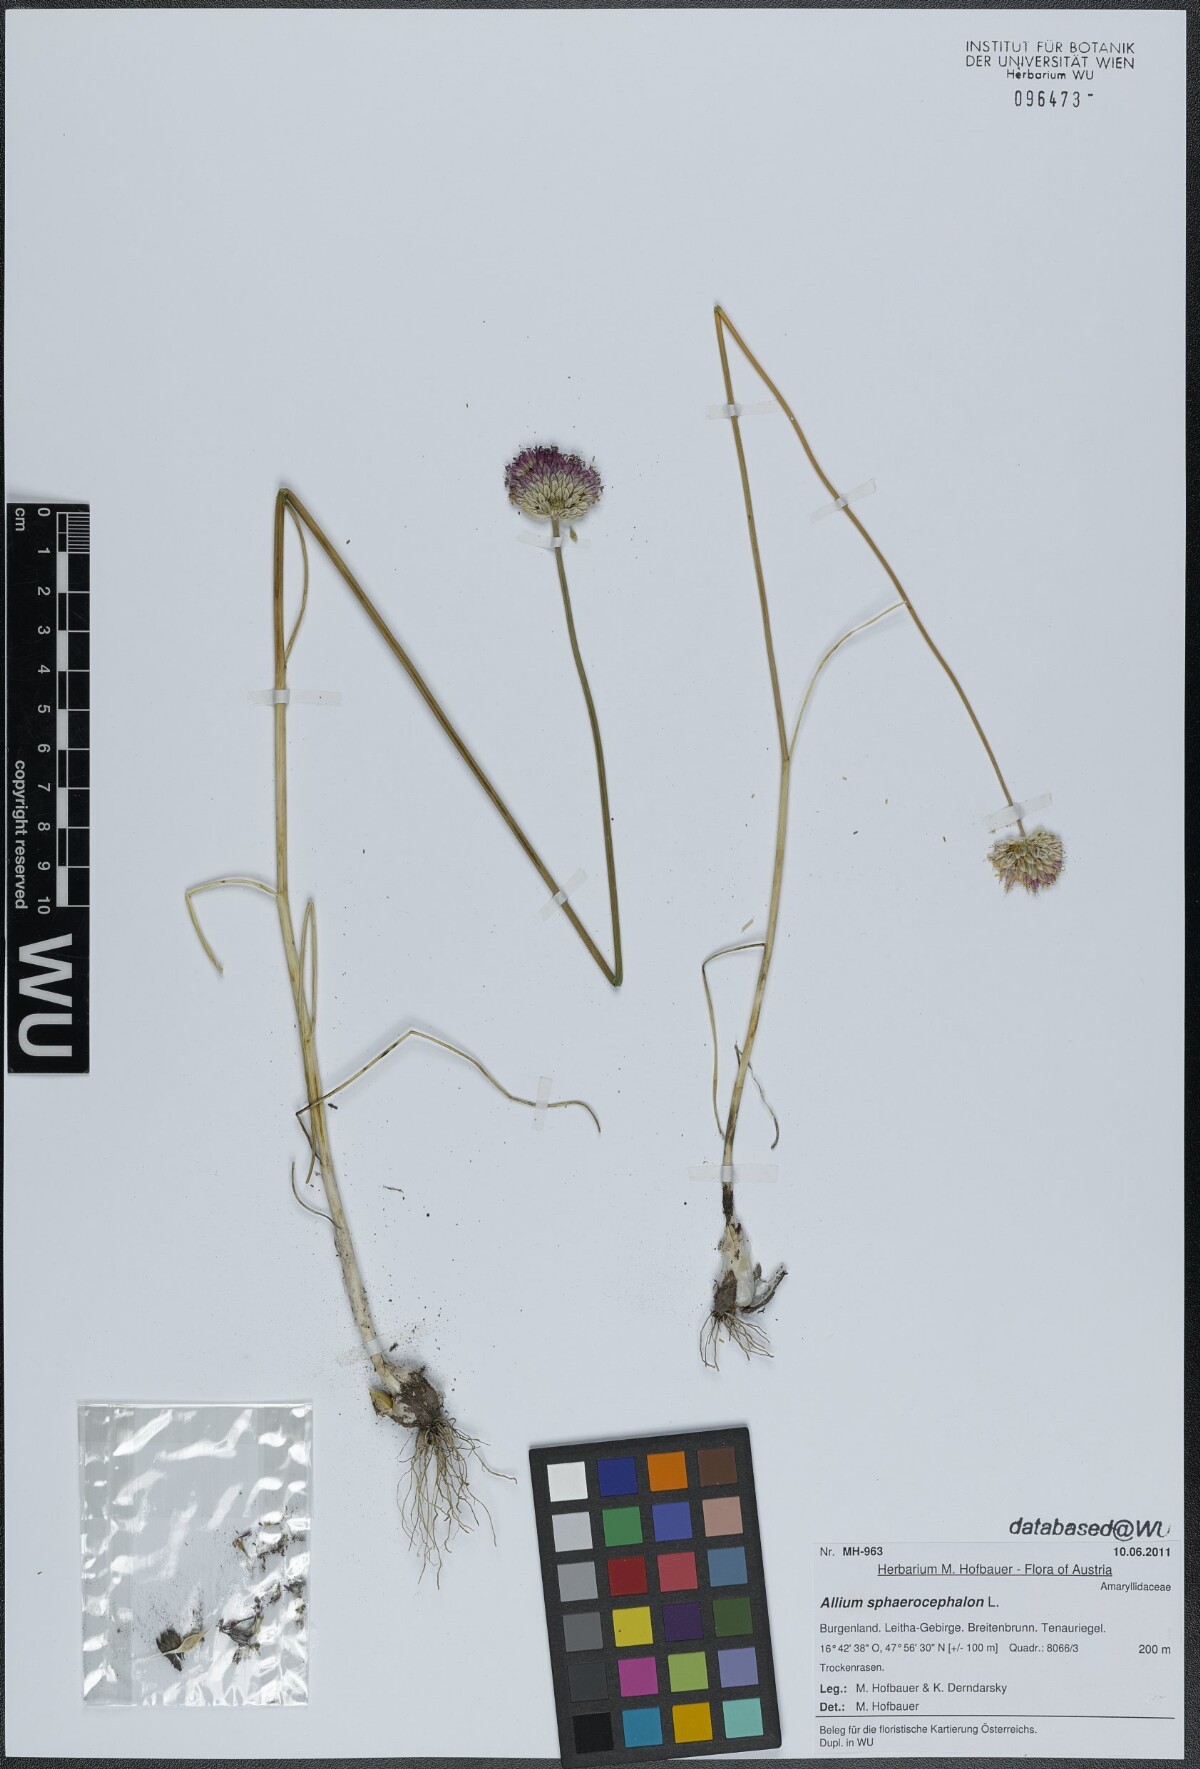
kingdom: Plantae
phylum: Tracheophyta
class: Liliopsida
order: Asparagales
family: Amaryllidaceae
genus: Allium
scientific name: Allium sphaerocephalon
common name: Round-headed leek
